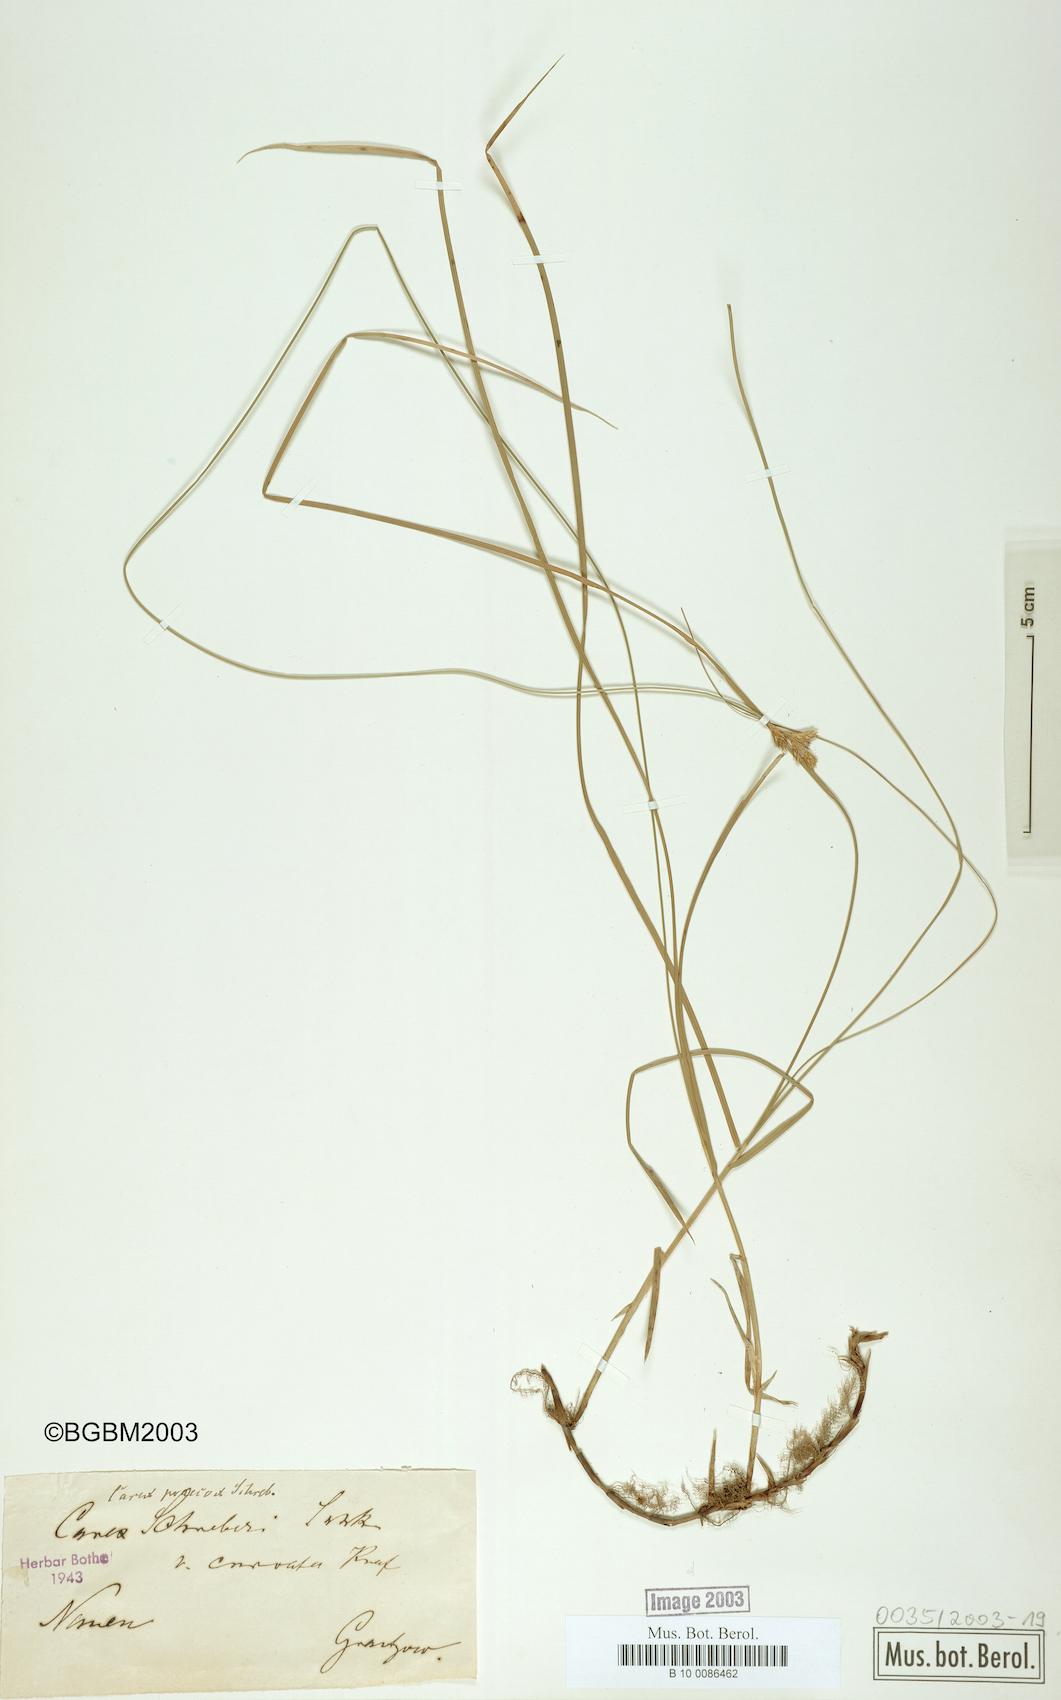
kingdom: Plantae
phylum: Tracheophyta
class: Liliopsida
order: Poales
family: Cyperaceae
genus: Carex
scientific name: Carex curvata
